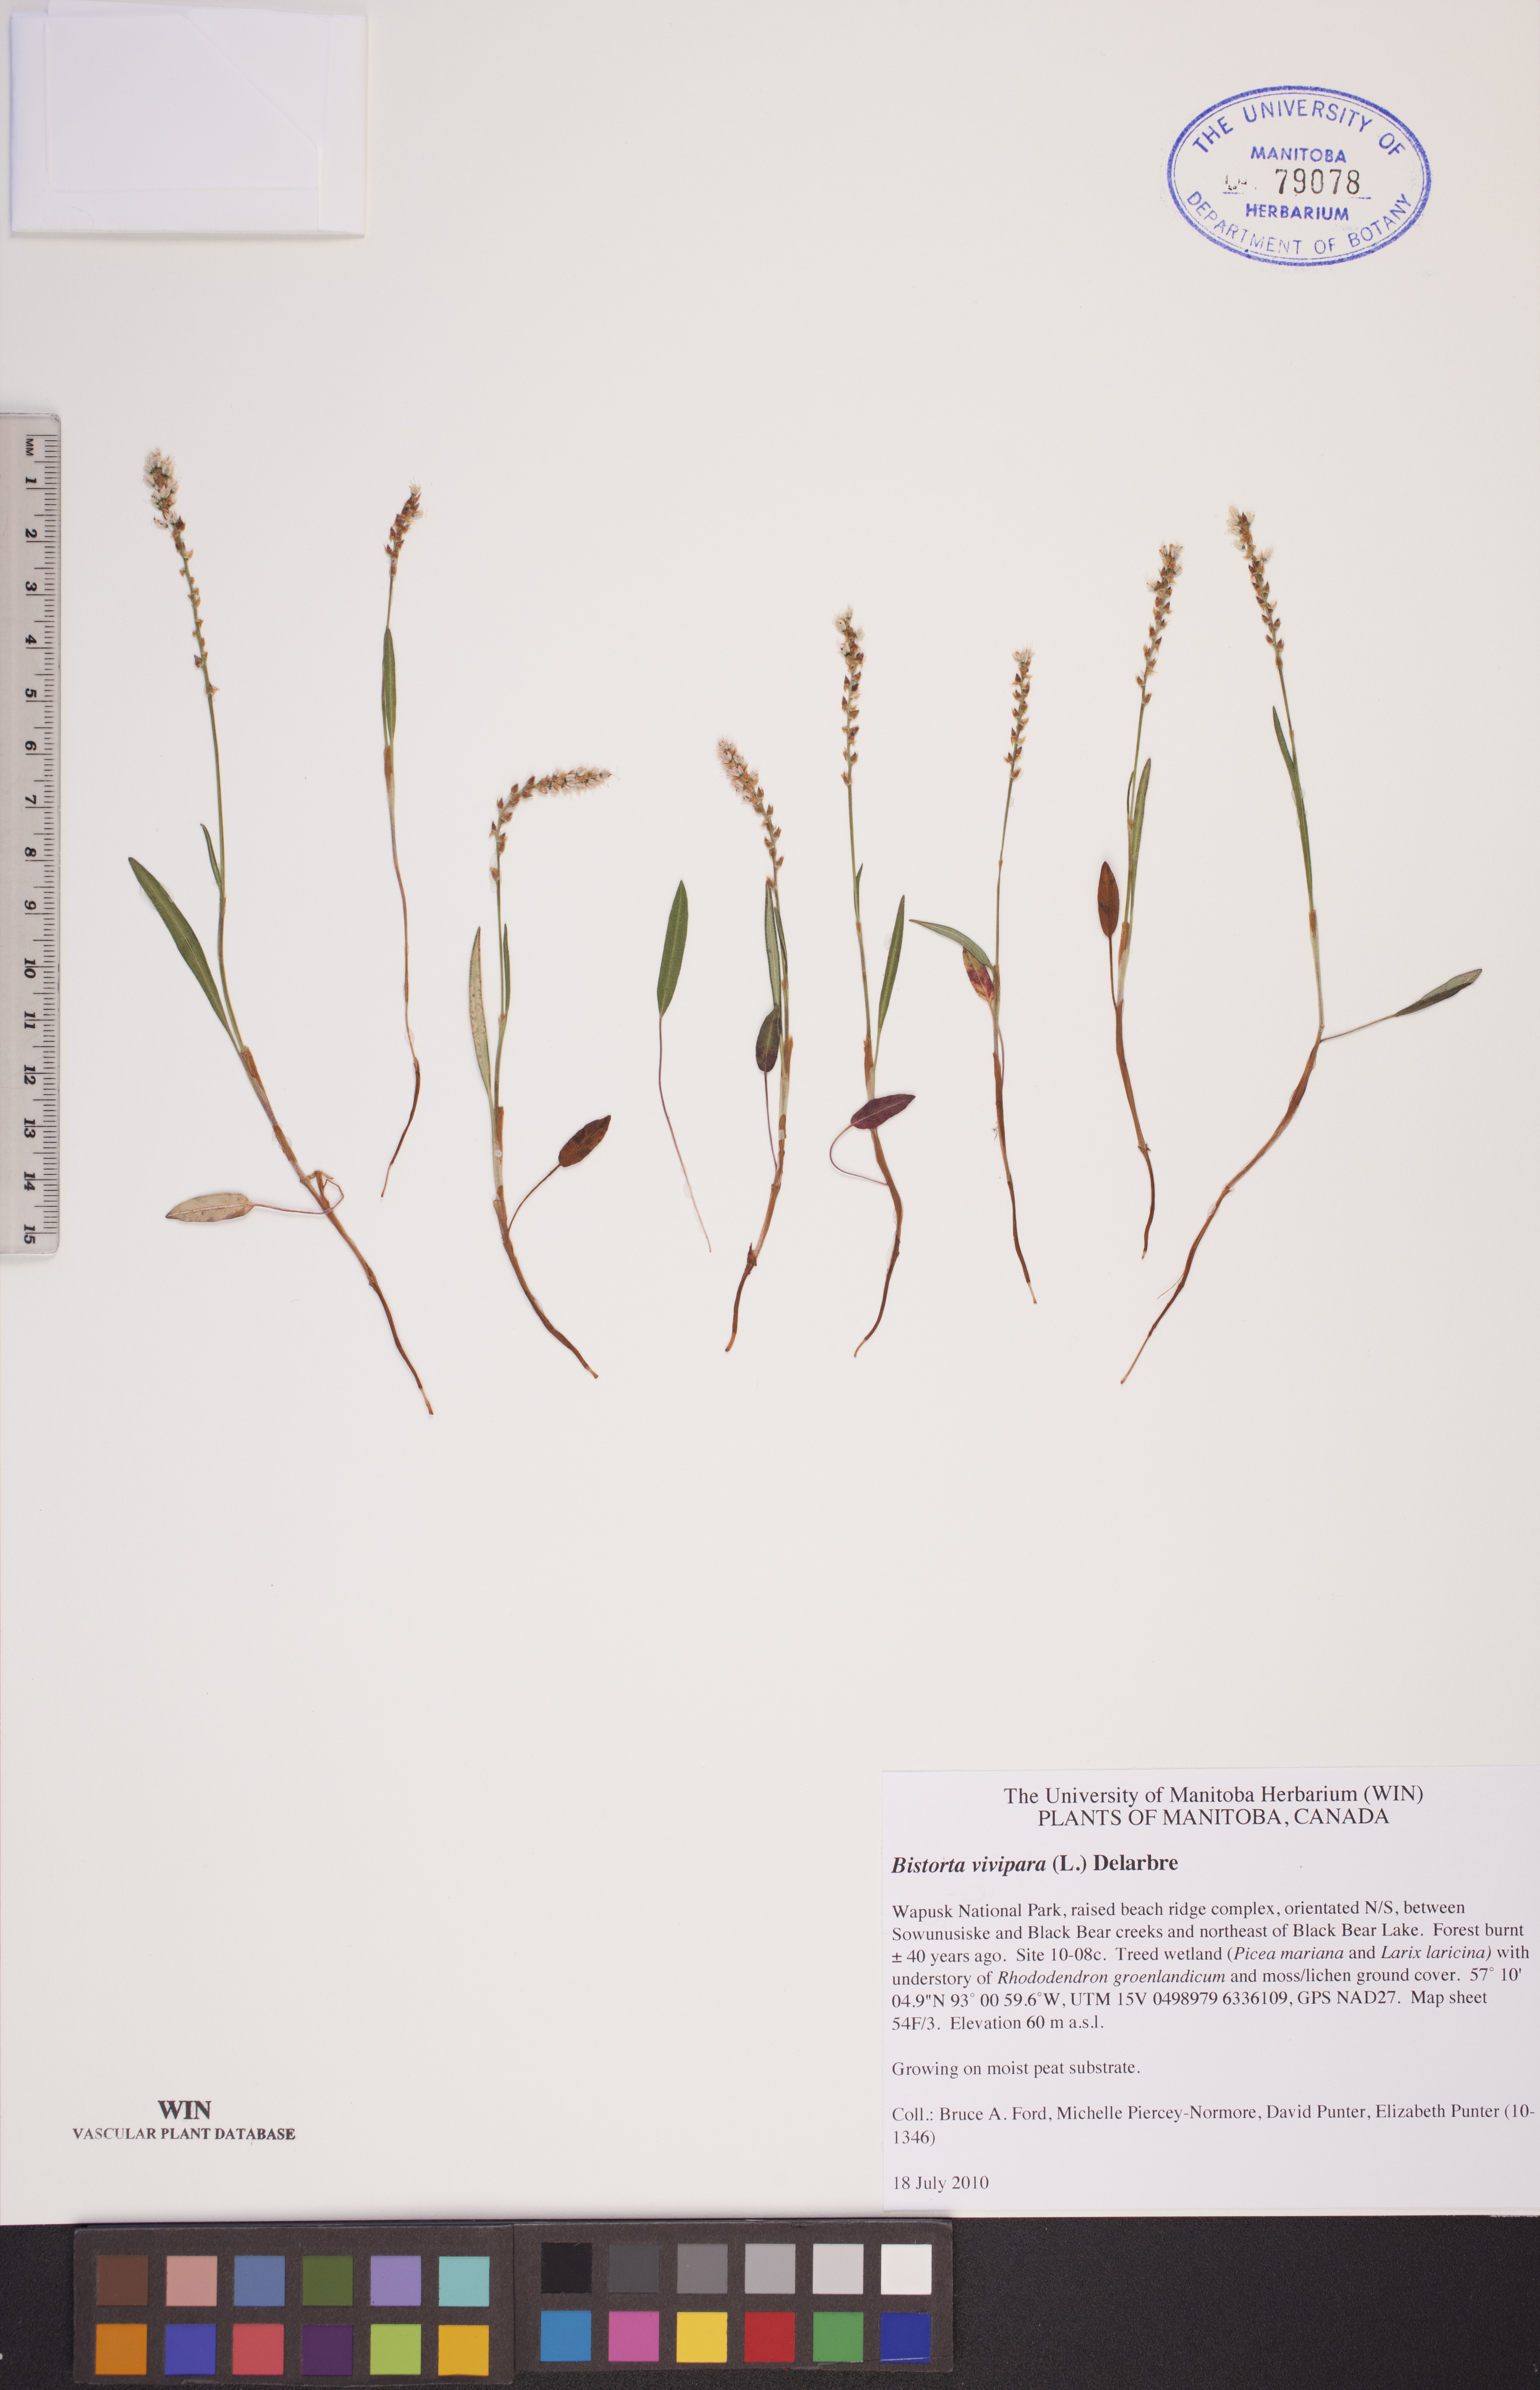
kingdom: Plantae
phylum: Tracheophyta
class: Magnoliopsida
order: Caryophyllales
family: Polygonaceae
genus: Bistorta
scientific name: Bistorta vivipara
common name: Alpine bistort
